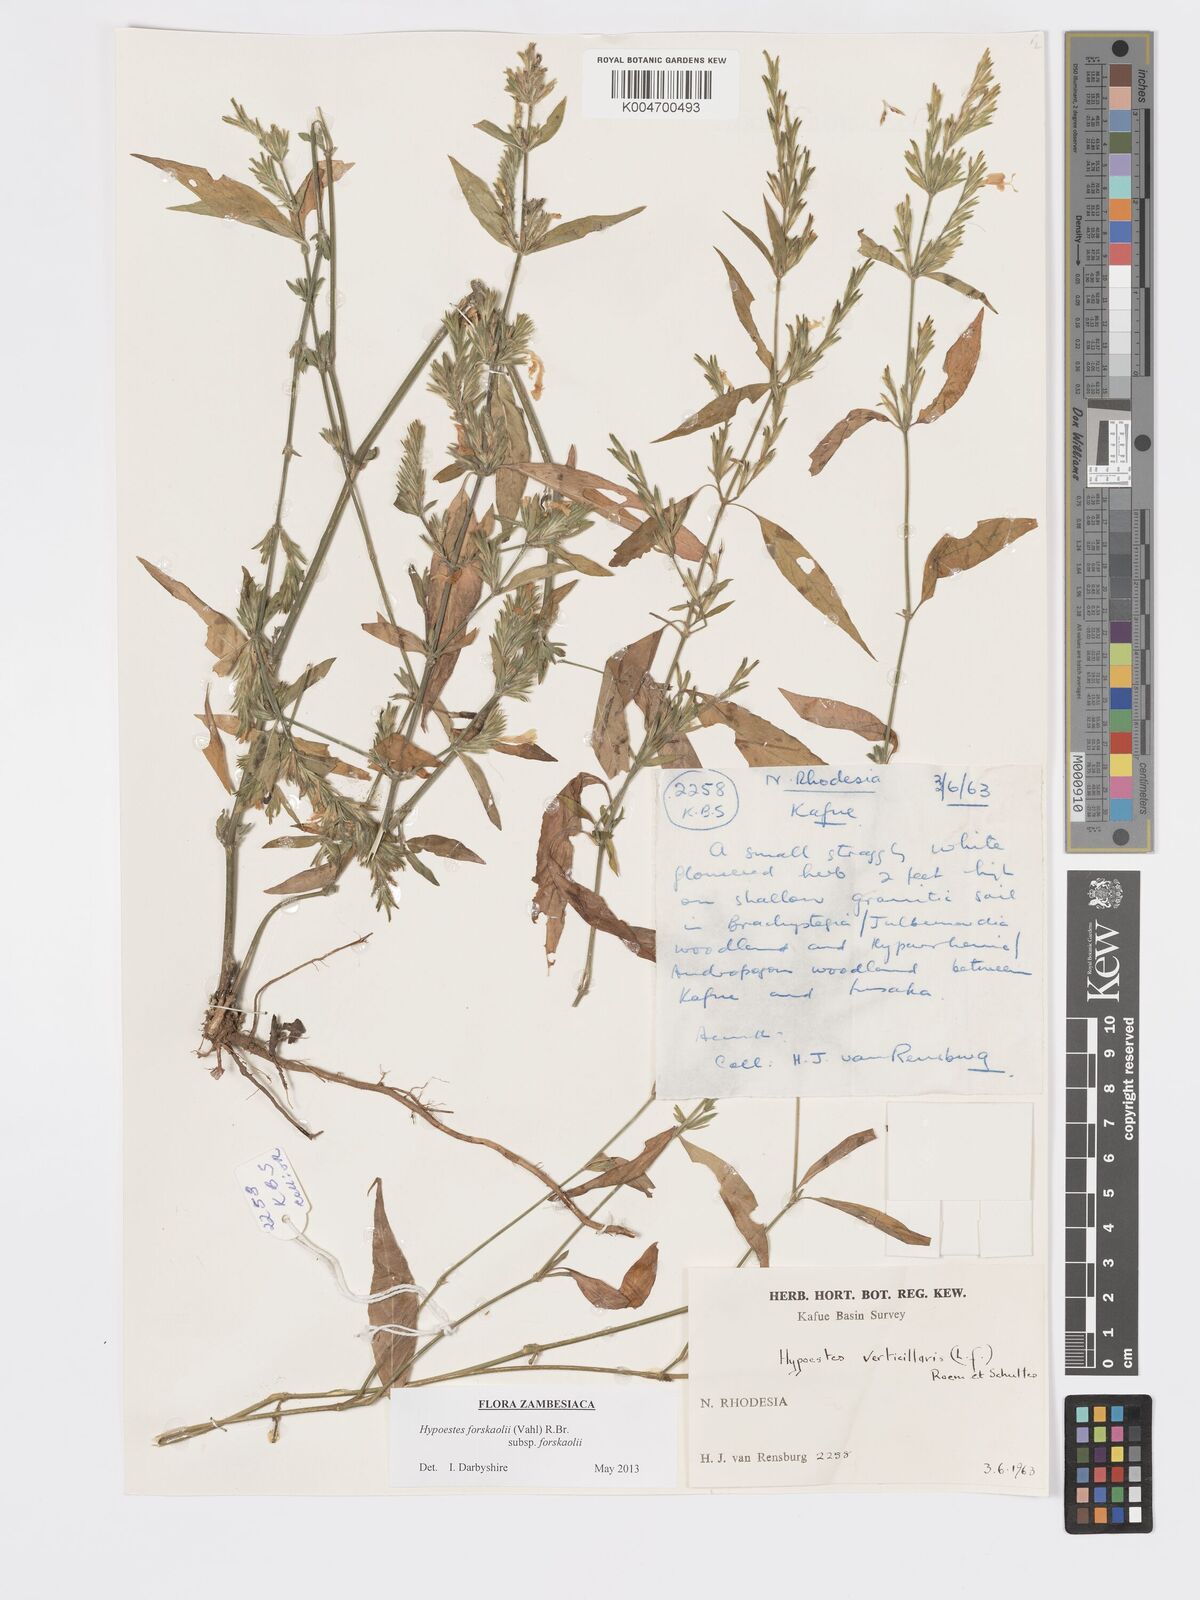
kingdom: Plantae
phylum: Tracheophyta
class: Magnoliopsida
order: Lamiales
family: Acanthaceae
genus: Hypoestes
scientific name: Hypoestes forskaolii
